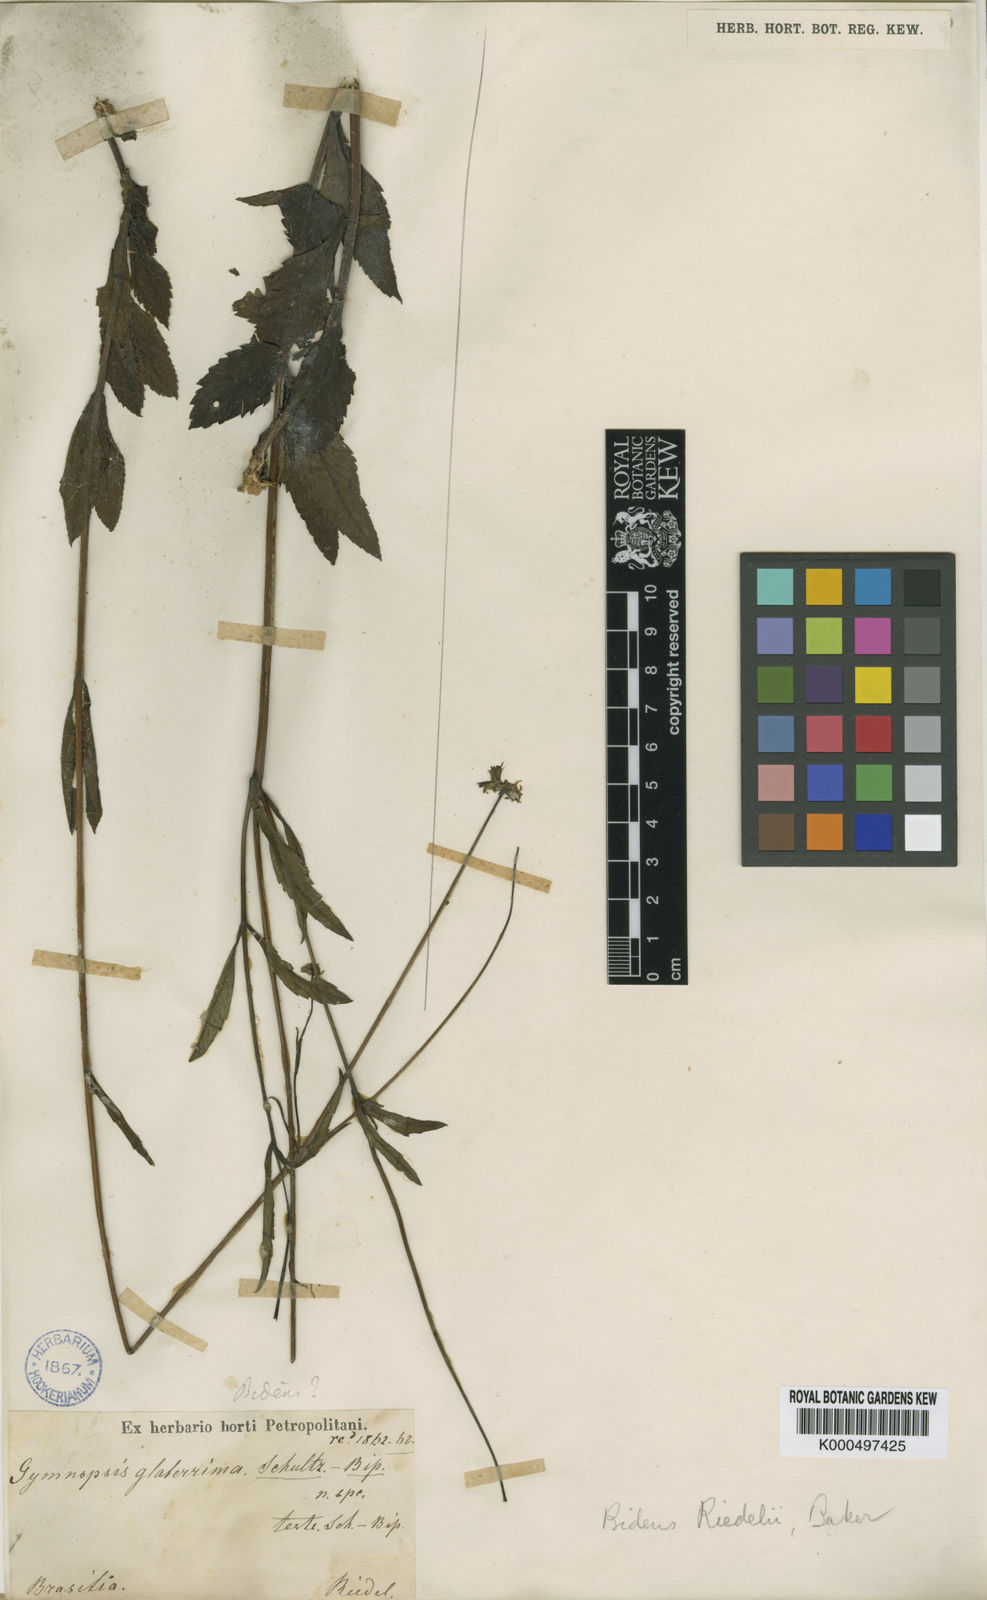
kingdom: Plantae
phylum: Tracheophyta
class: Magnoliopsida
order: Asterales
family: Asteraceae
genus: Bidens
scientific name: Bidens riedelii
